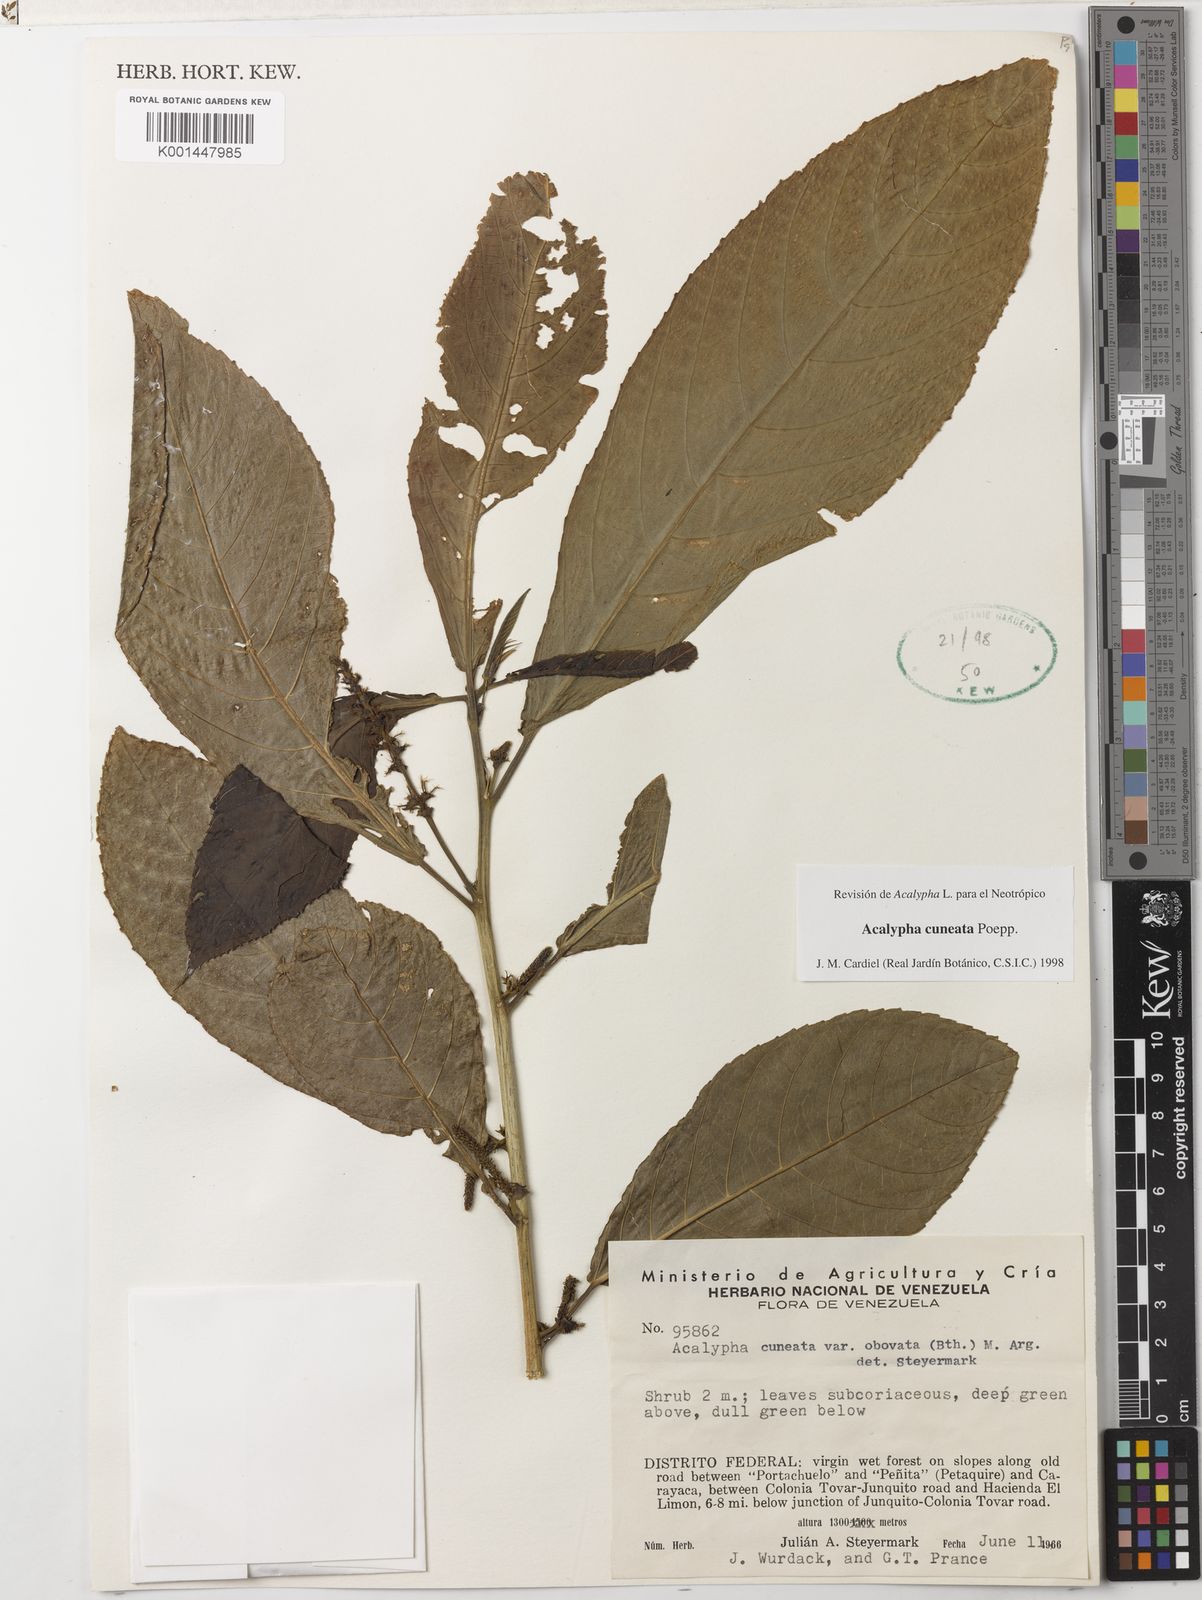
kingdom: Plantae
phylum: Tracheophyta
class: Magnoliopsida
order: Malpighiales
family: Euphorbiaceae
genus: Acalypha
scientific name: Acalypha cuneata
